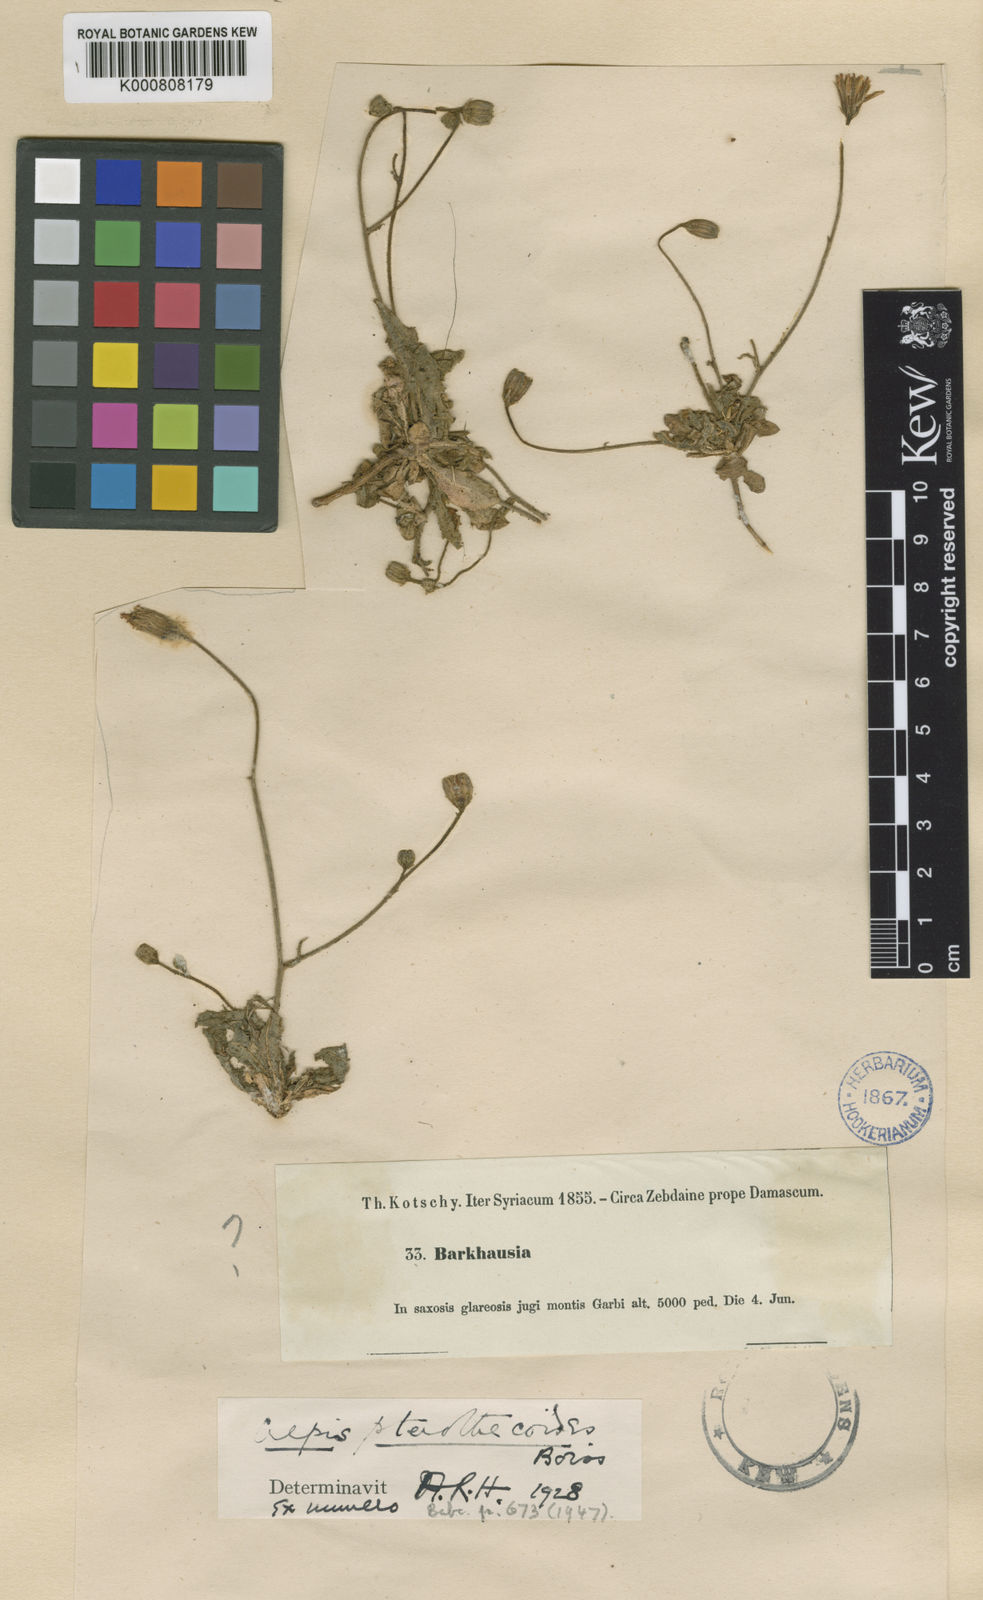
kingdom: Plantae
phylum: Tracheophyta
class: Magnoliopsida
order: Asterales
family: Asteraceae
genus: Crepis
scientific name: Crepis pterothecoides
